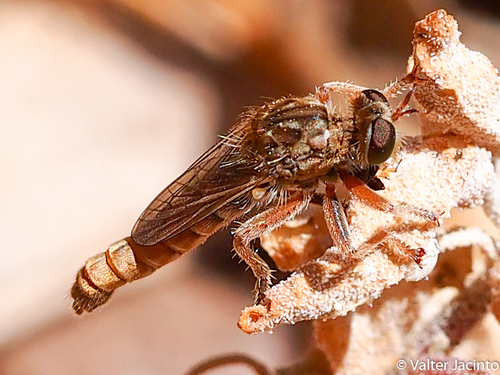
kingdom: Animalia
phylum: Arthropoda
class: Insecta
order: Diptera
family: Asilidae
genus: Habropogon
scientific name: Habropogon
